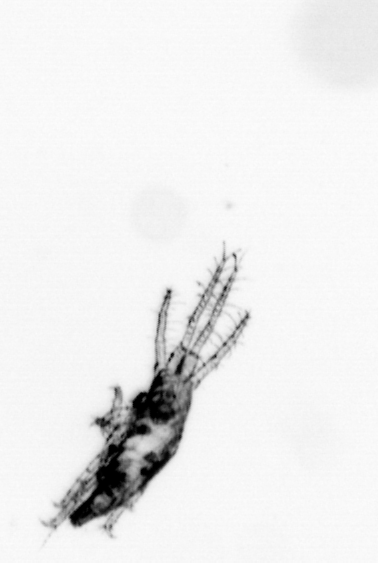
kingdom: Animalia
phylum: Arthropoda
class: Arachnida
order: Trombidiformes
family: Halacaridae
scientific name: Halacaridae
